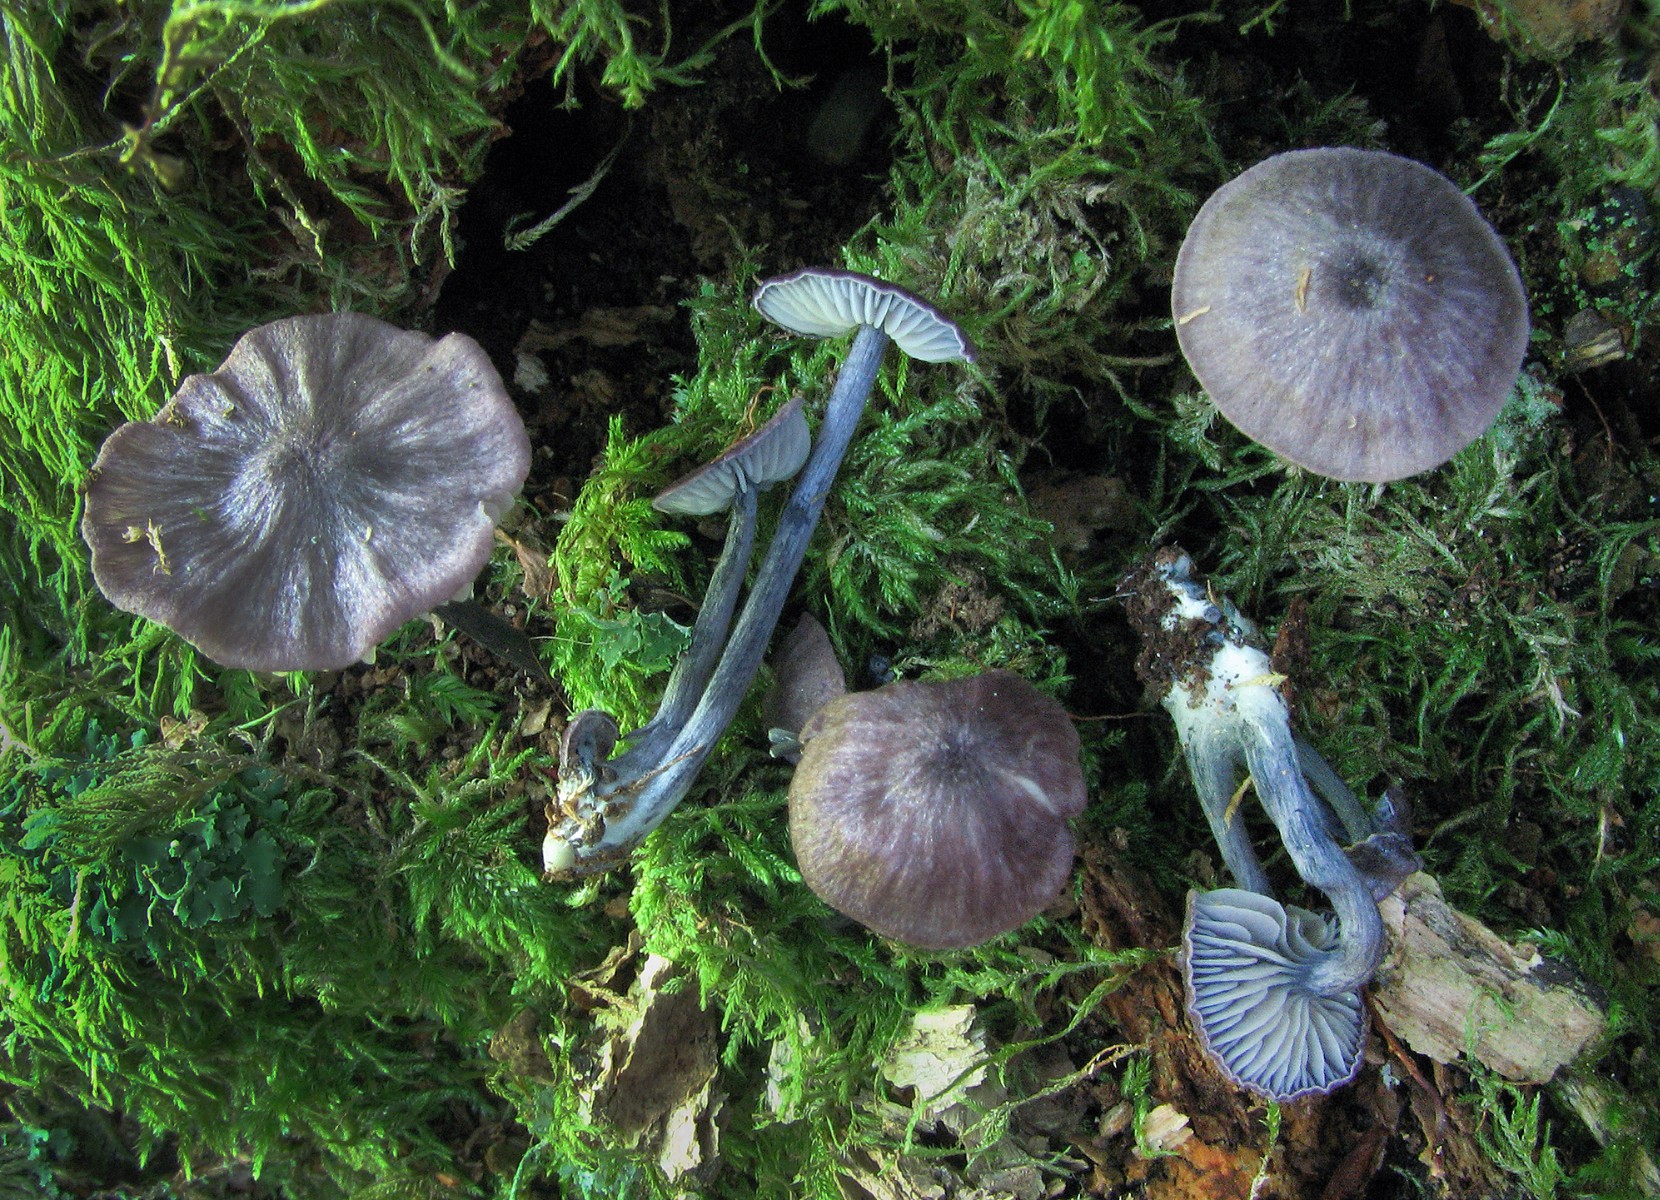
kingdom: Fungi
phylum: Basidiomycota
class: Agaricomycetes
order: Agaricales
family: Entolomataceae
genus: Entoloma
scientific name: Entoloma syringicolor
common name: syren-rødblad
